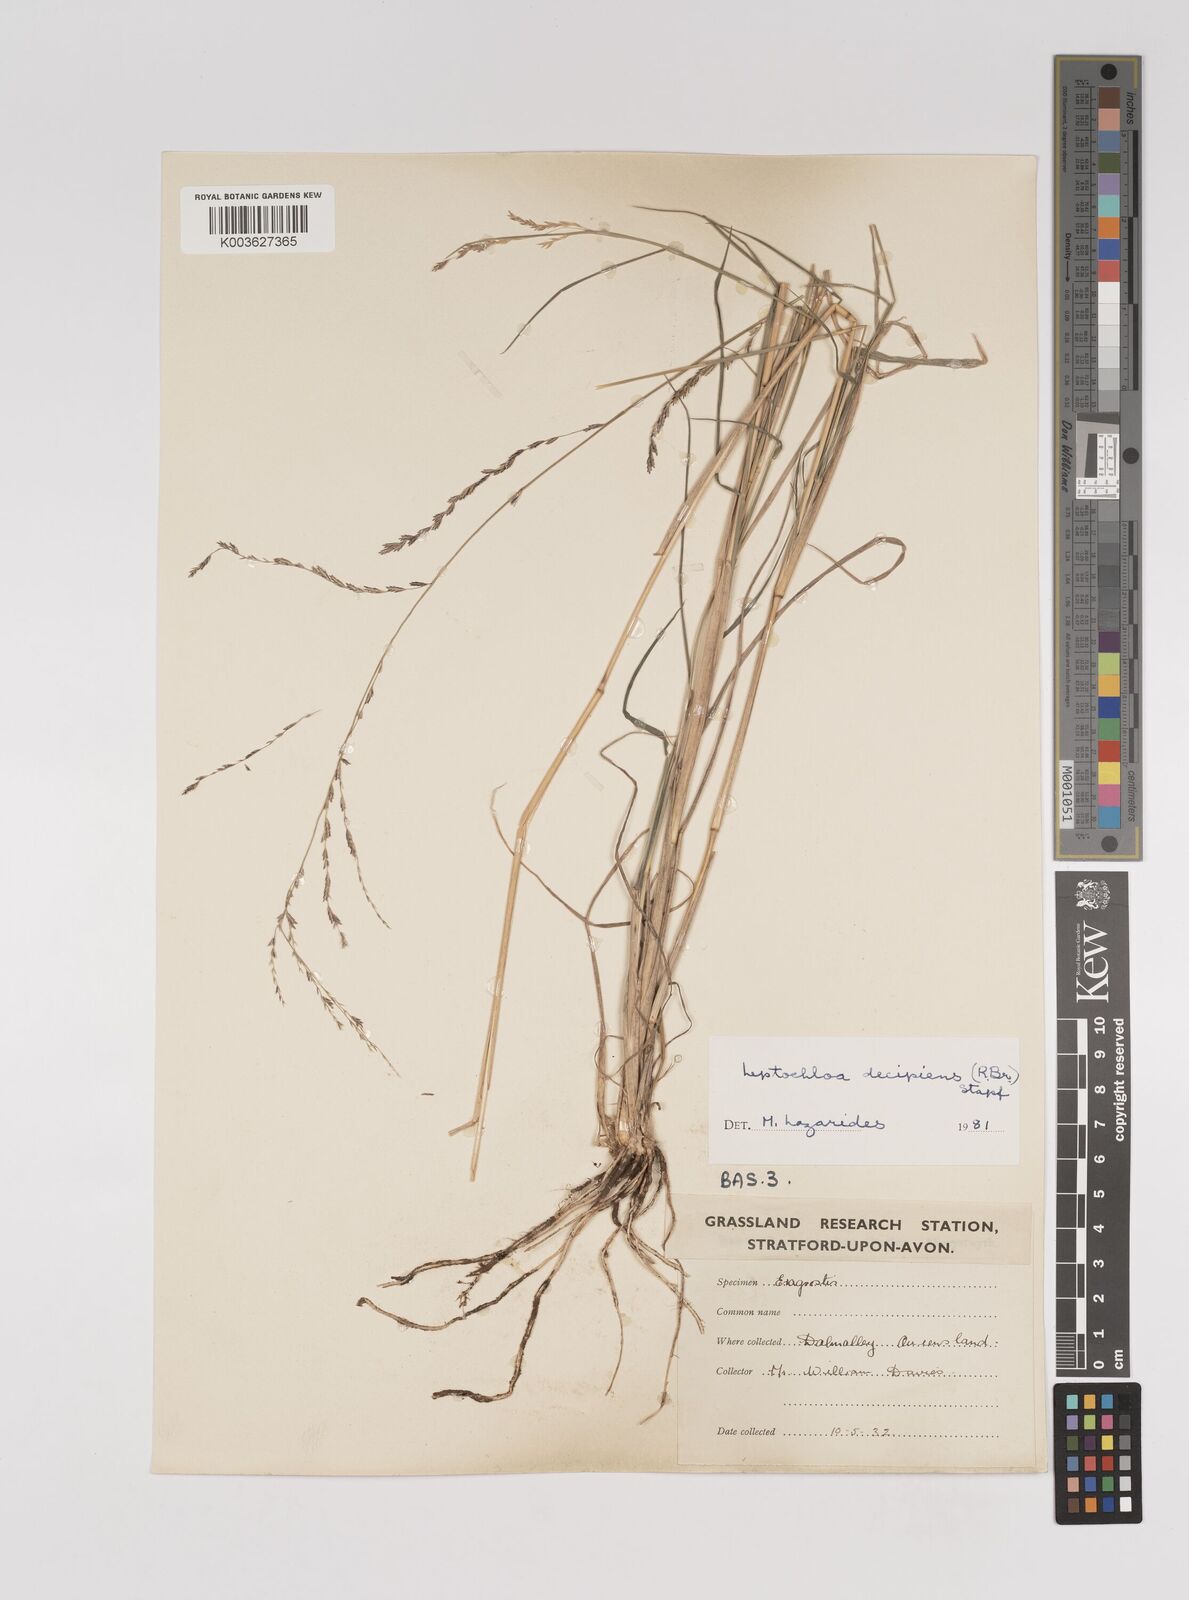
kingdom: Plantae
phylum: Tracheophyta
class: Liliopsida
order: Poales
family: Poaceae
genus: Leptochloa
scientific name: Leptochloa decipiens
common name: Australian sprangletop
